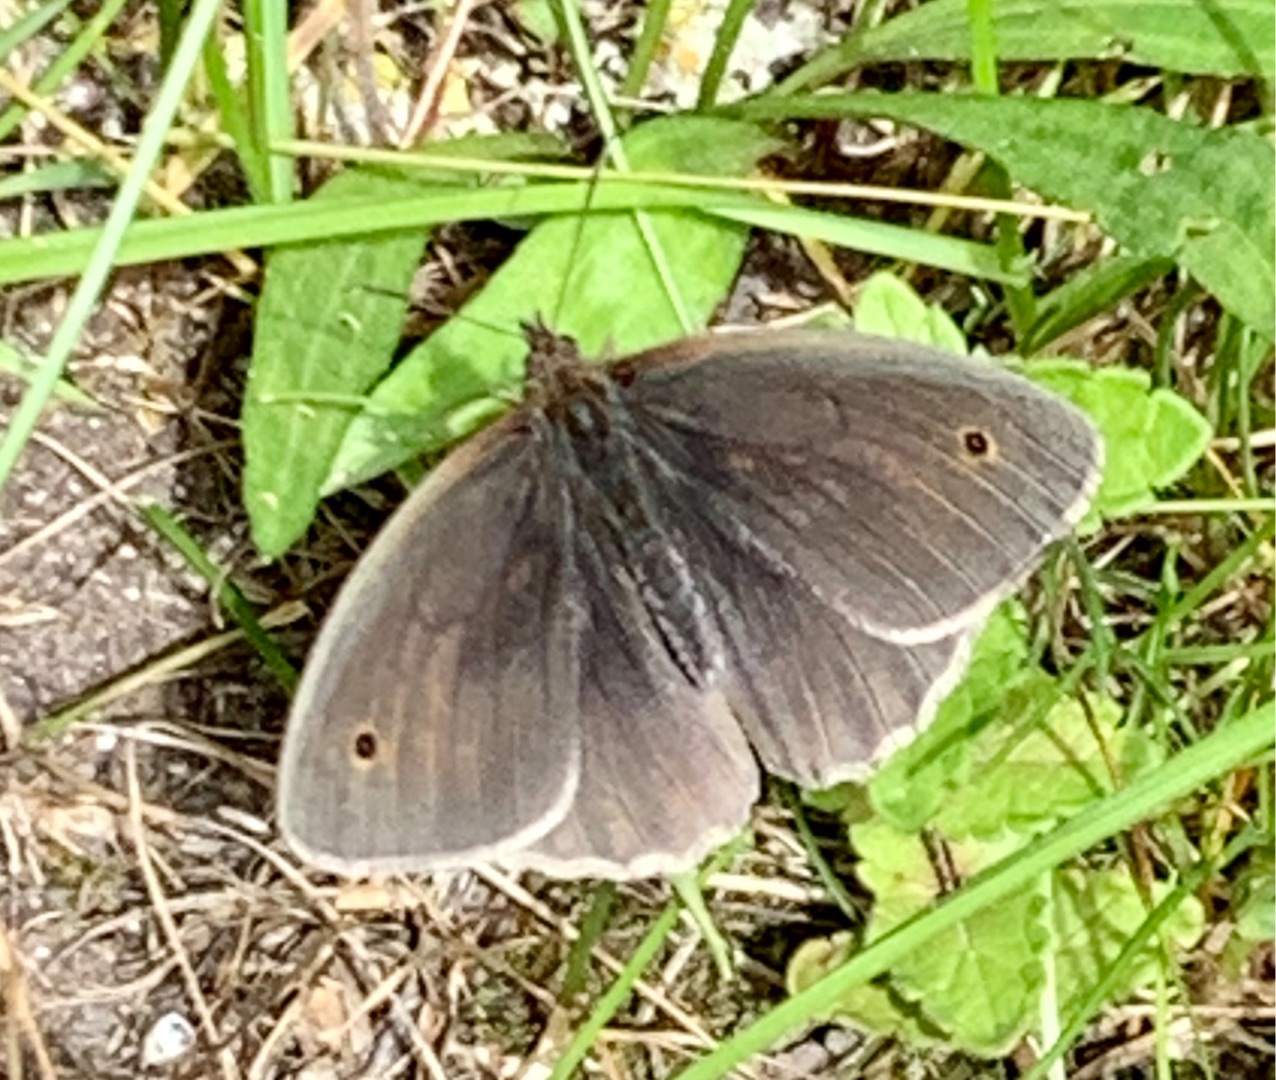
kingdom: Animalia
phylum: Arthropoda
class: Insecta
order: Lepidoptera
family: Nymphalidae
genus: Maniola
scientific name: Maniola jurtina
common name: Græsrandøje
